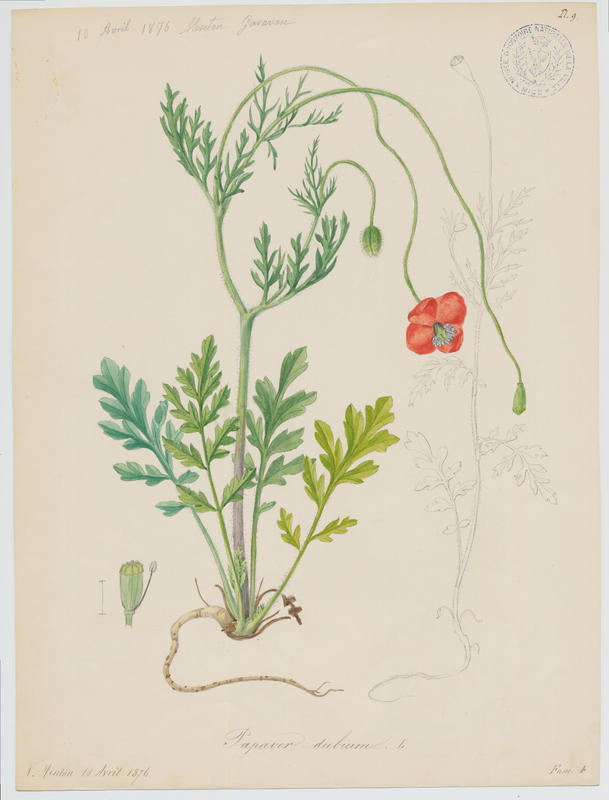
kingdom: Plantae
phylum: Tracheophyta
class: Magnoliopsida
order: Ranunculales
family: Papaveraceae
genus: Papaver
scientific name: Papaver dubium
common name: Long-headed poppy
